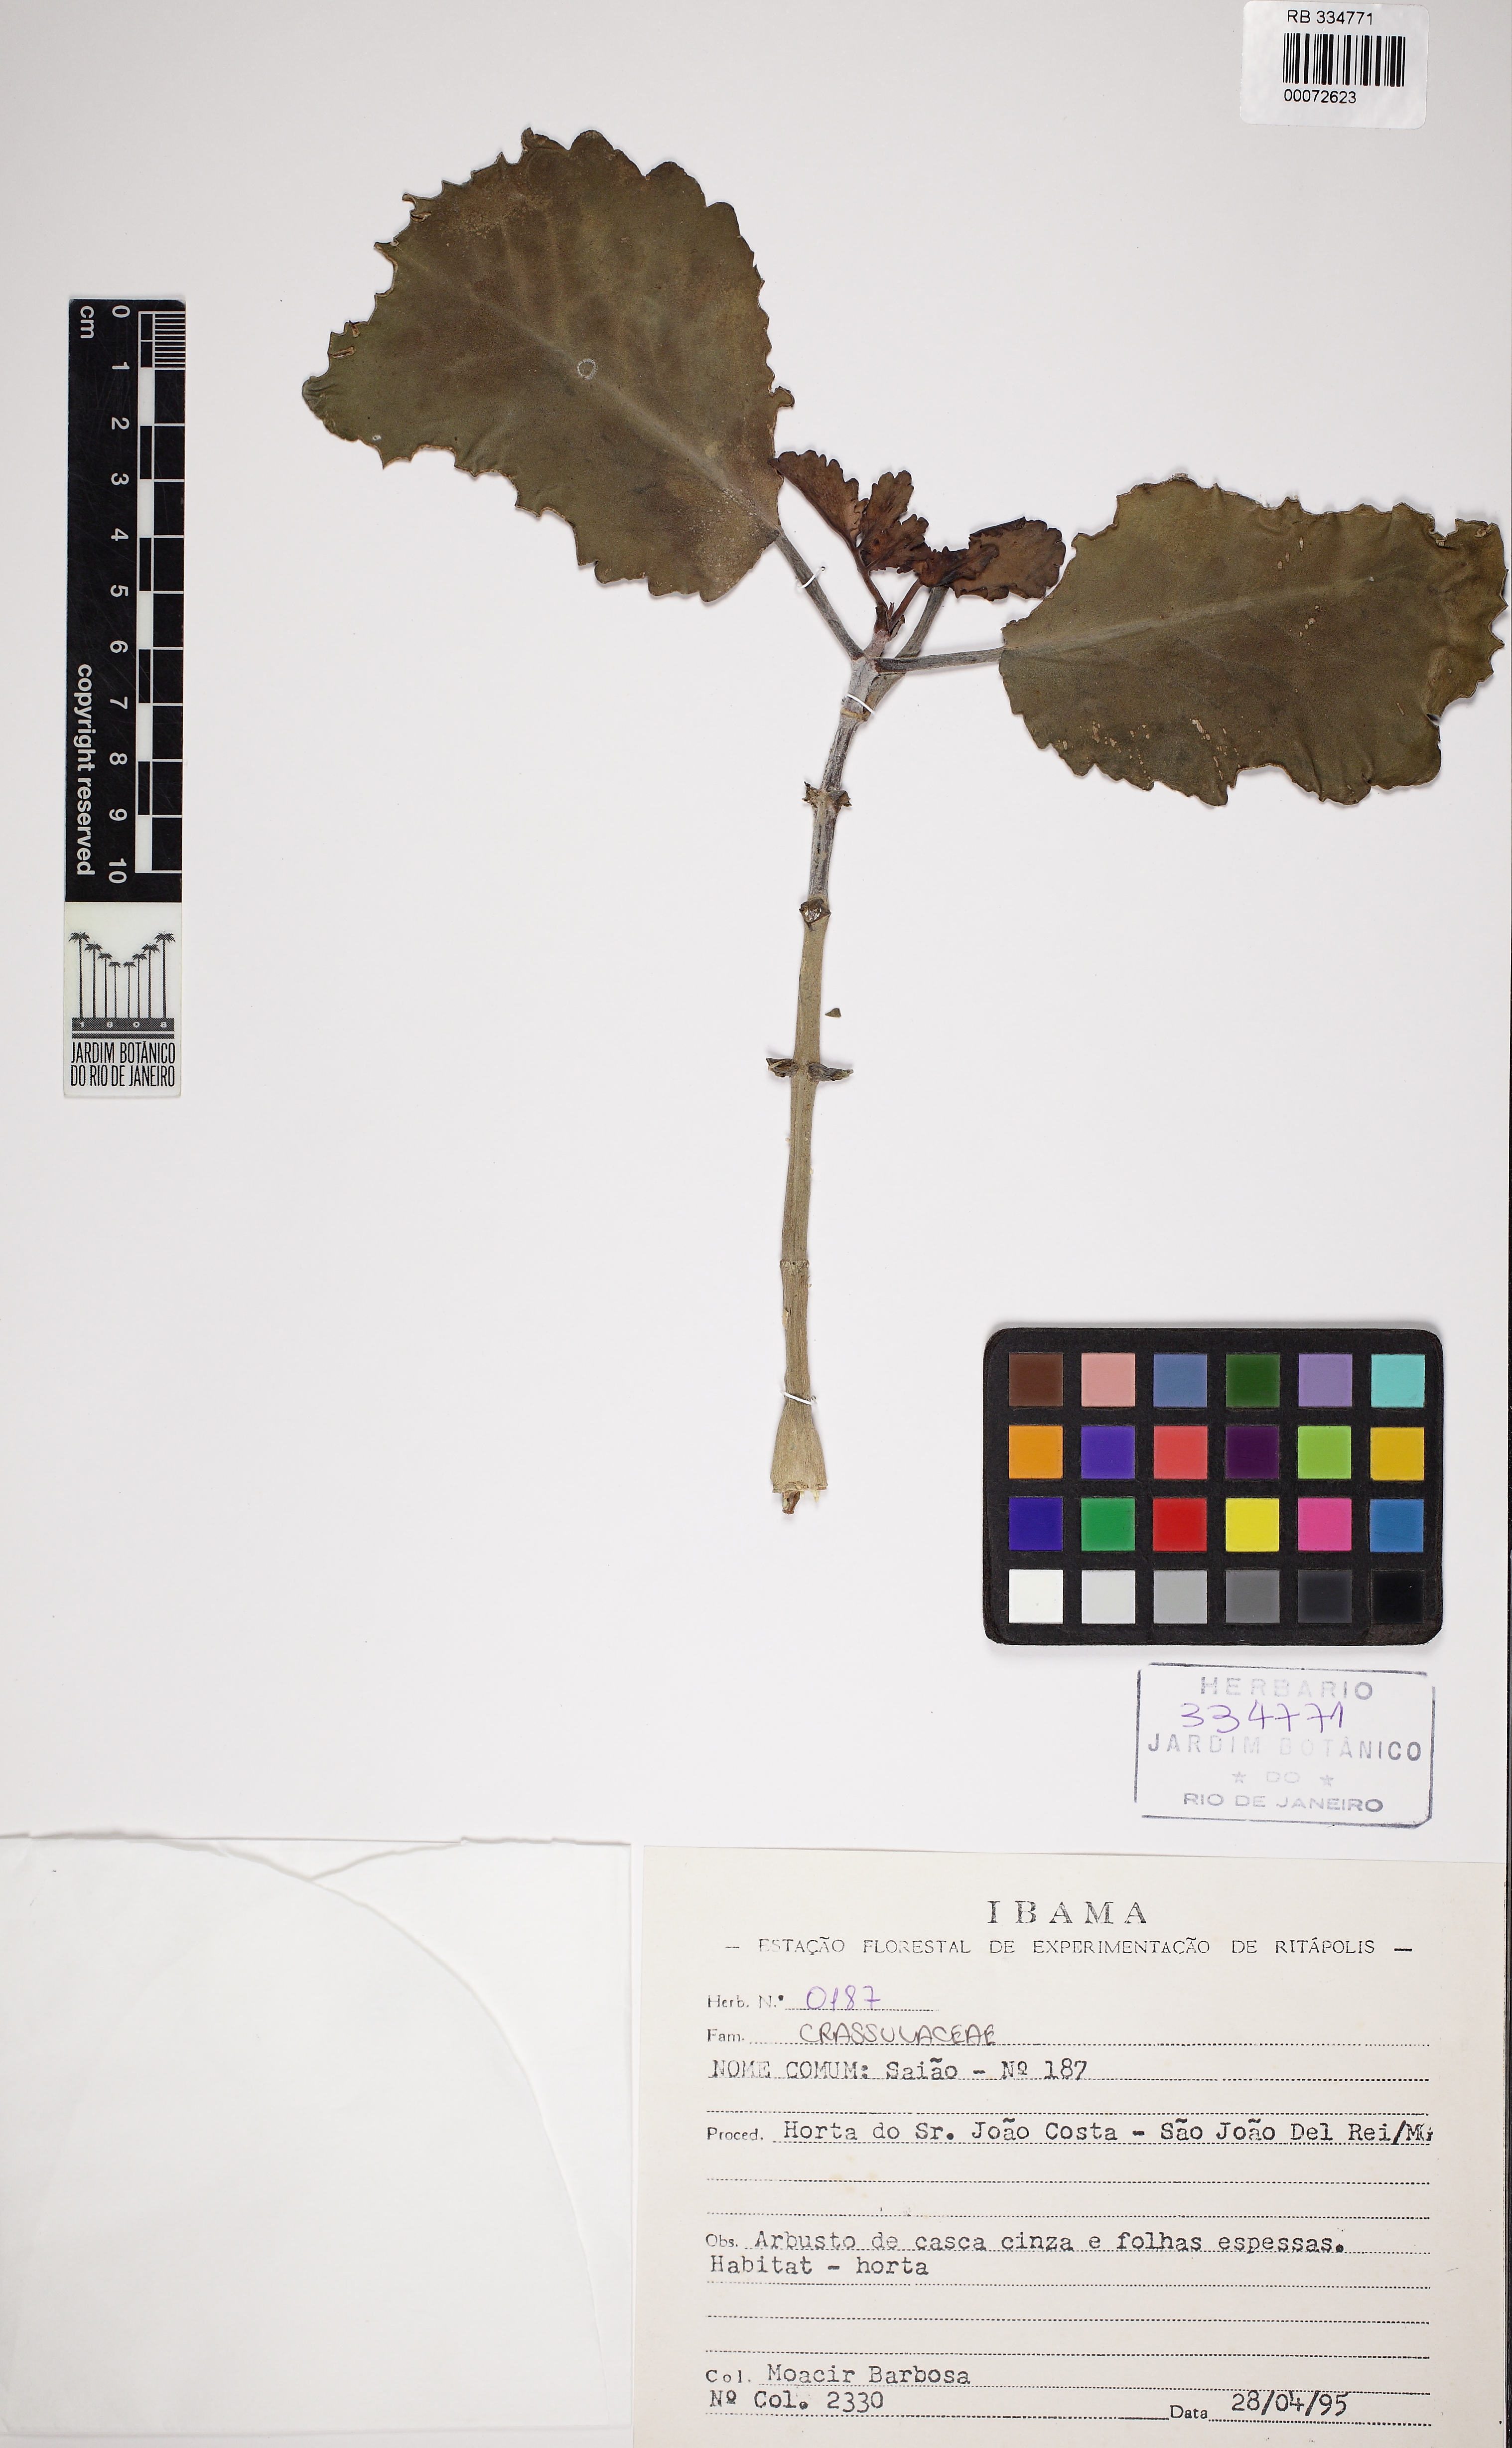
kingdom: Plantae
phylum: Tracheophyta
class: Magnoliopsida
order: Saxifragales
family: Crassulaceae
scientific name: Crassulaceae
